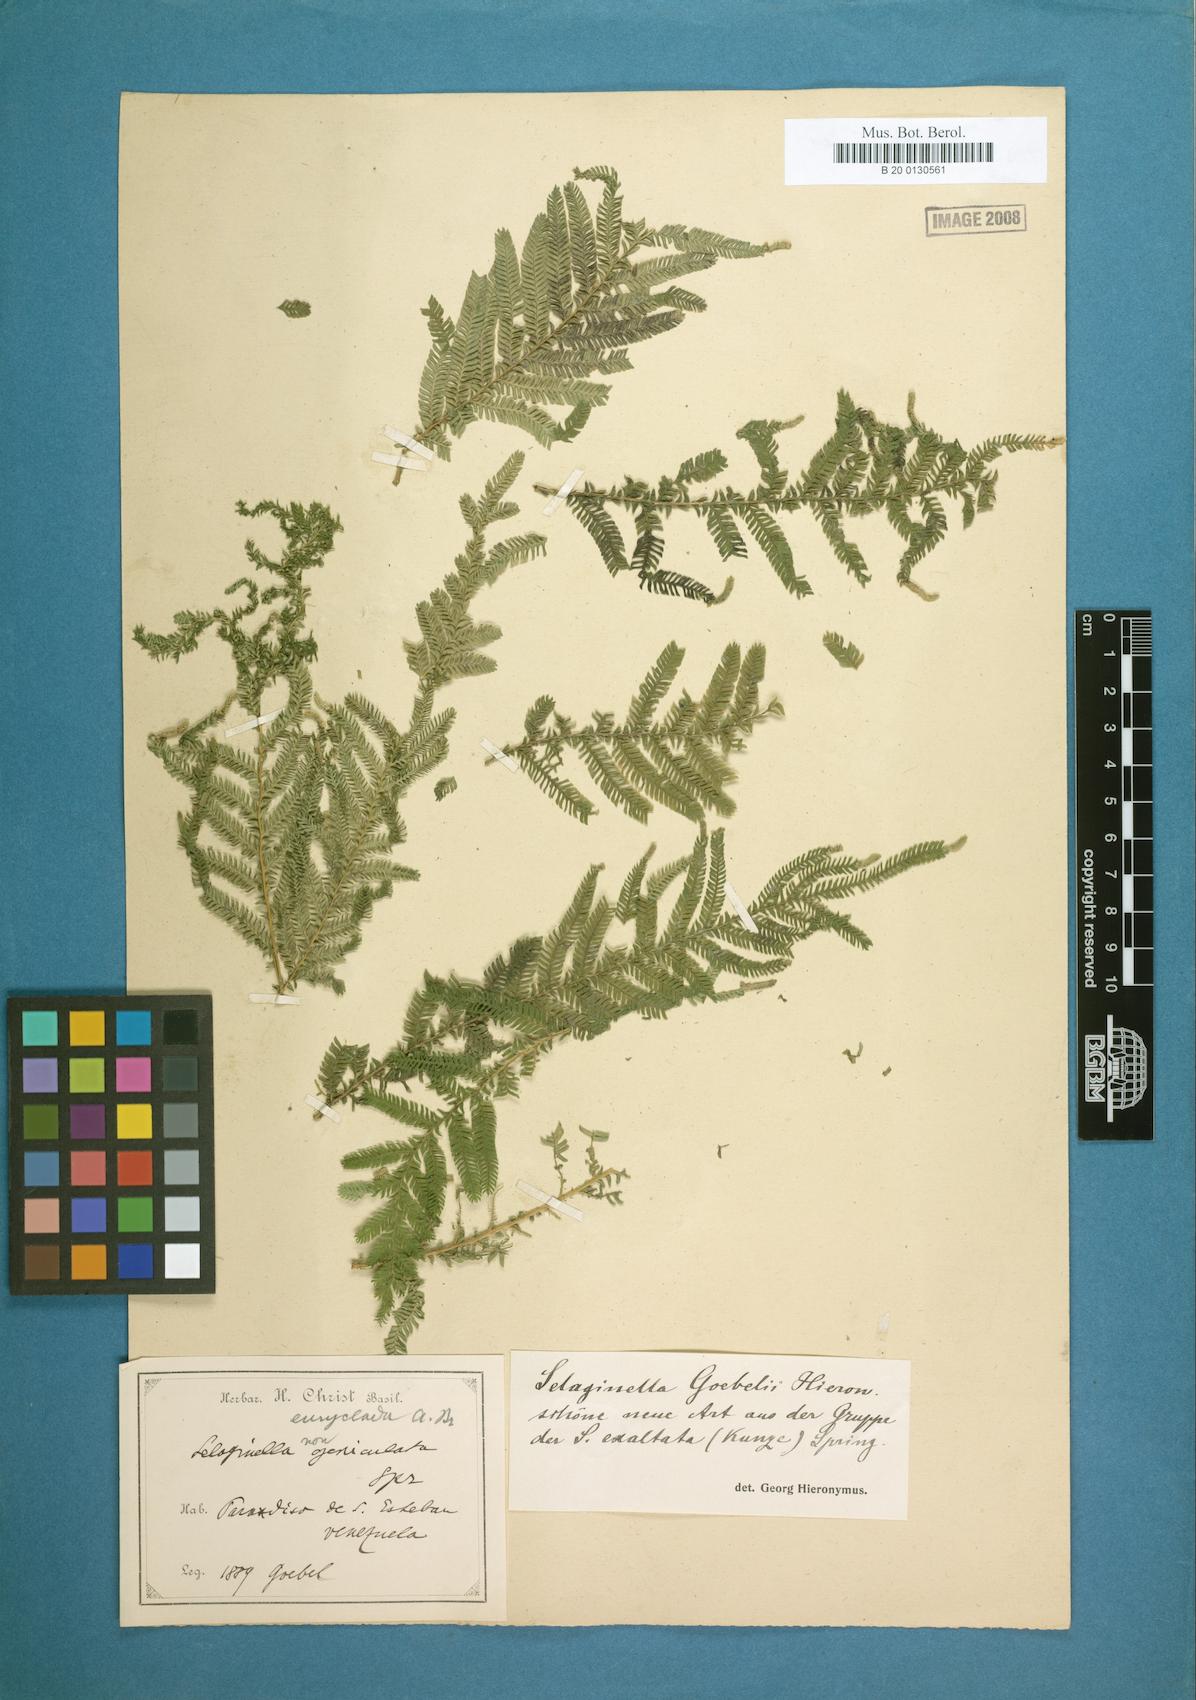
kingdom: Plantae
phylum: Tracheophyta
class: Lycopodiopsida
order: Selaginellales
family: Selaginellaceae
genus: Selaginella
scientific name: Selaginella parkeri
